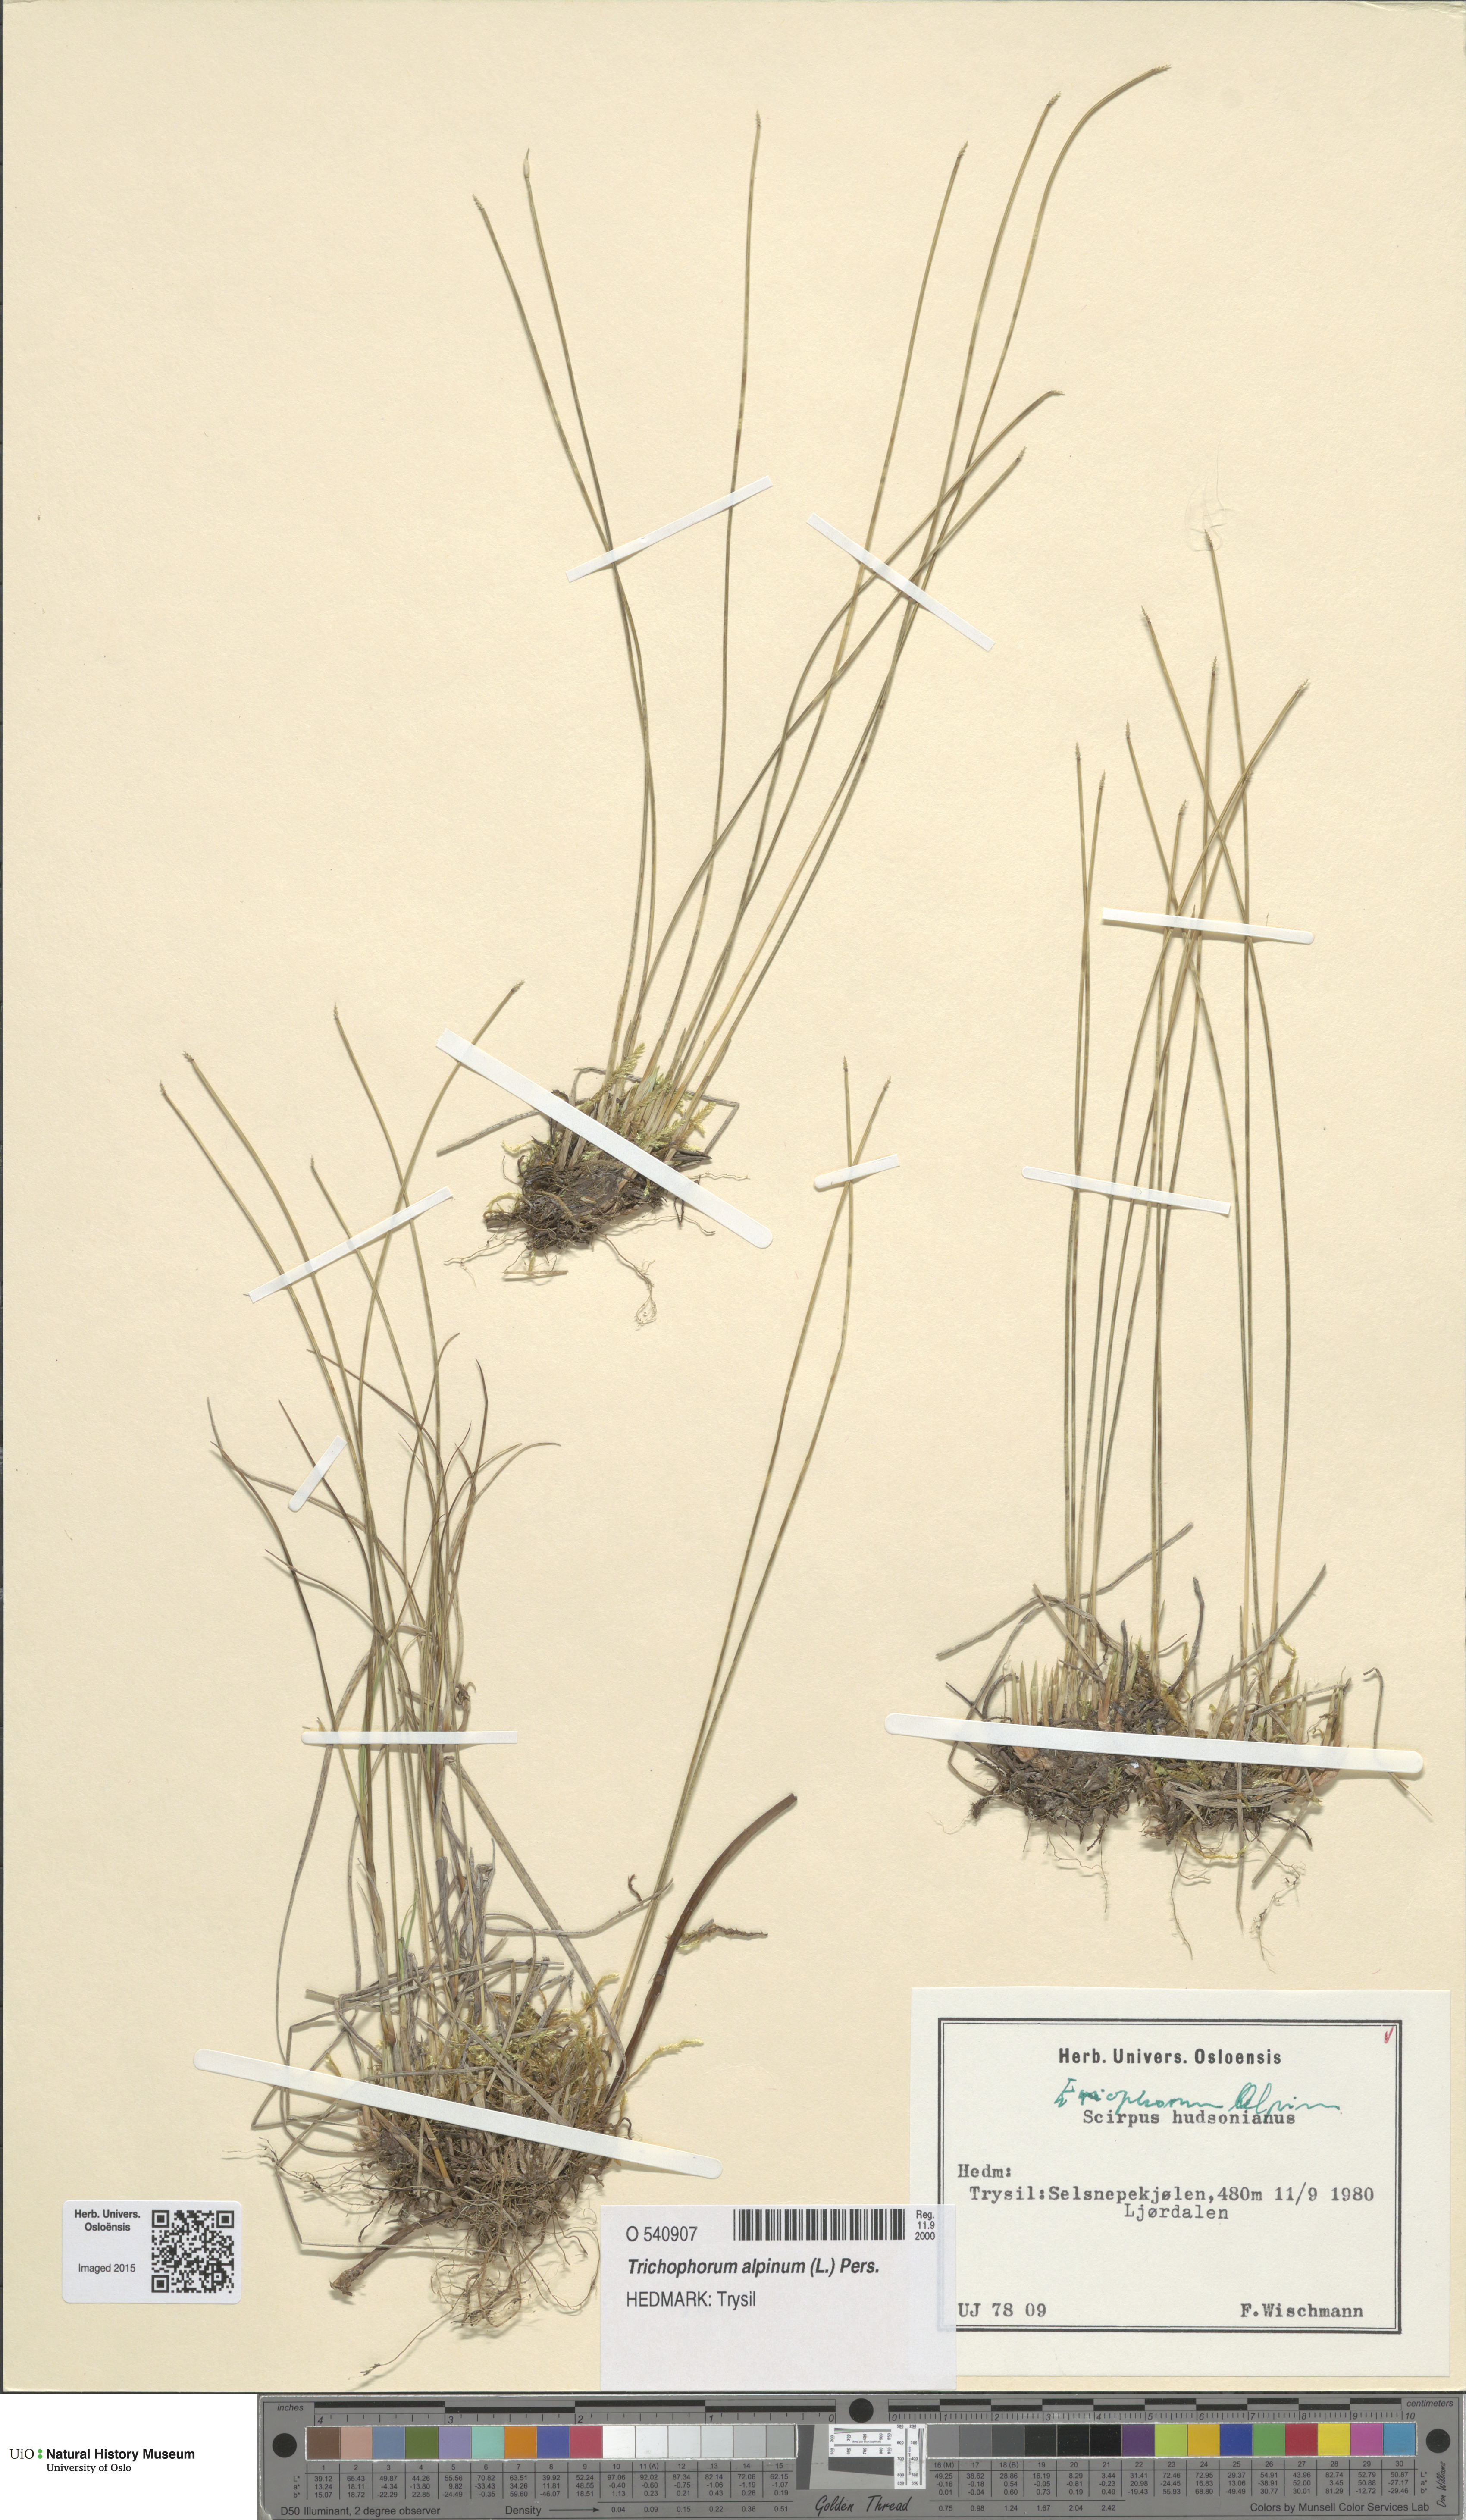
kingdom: Plantae
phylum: Tracheophyta
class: Liliopsida
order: Poales
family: Cyperaceae
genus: Trichophorum
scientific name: Trichophorum alpinum
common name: Alpine bulrush
